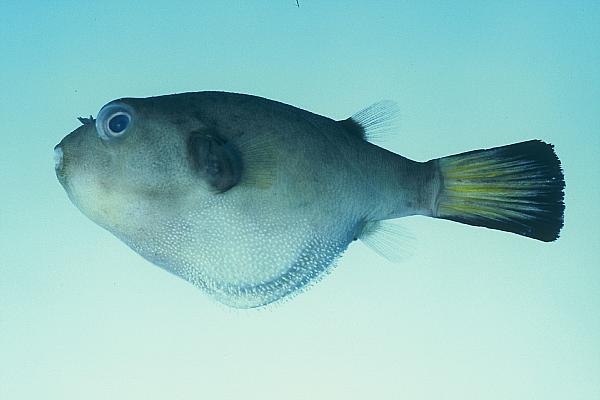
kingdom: Animalia
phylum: Chordata
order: Tetraodontiformes
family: Tetraodontidae
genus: Arothron
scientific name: Arothron immaculatus
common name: Blackedged blaasop
